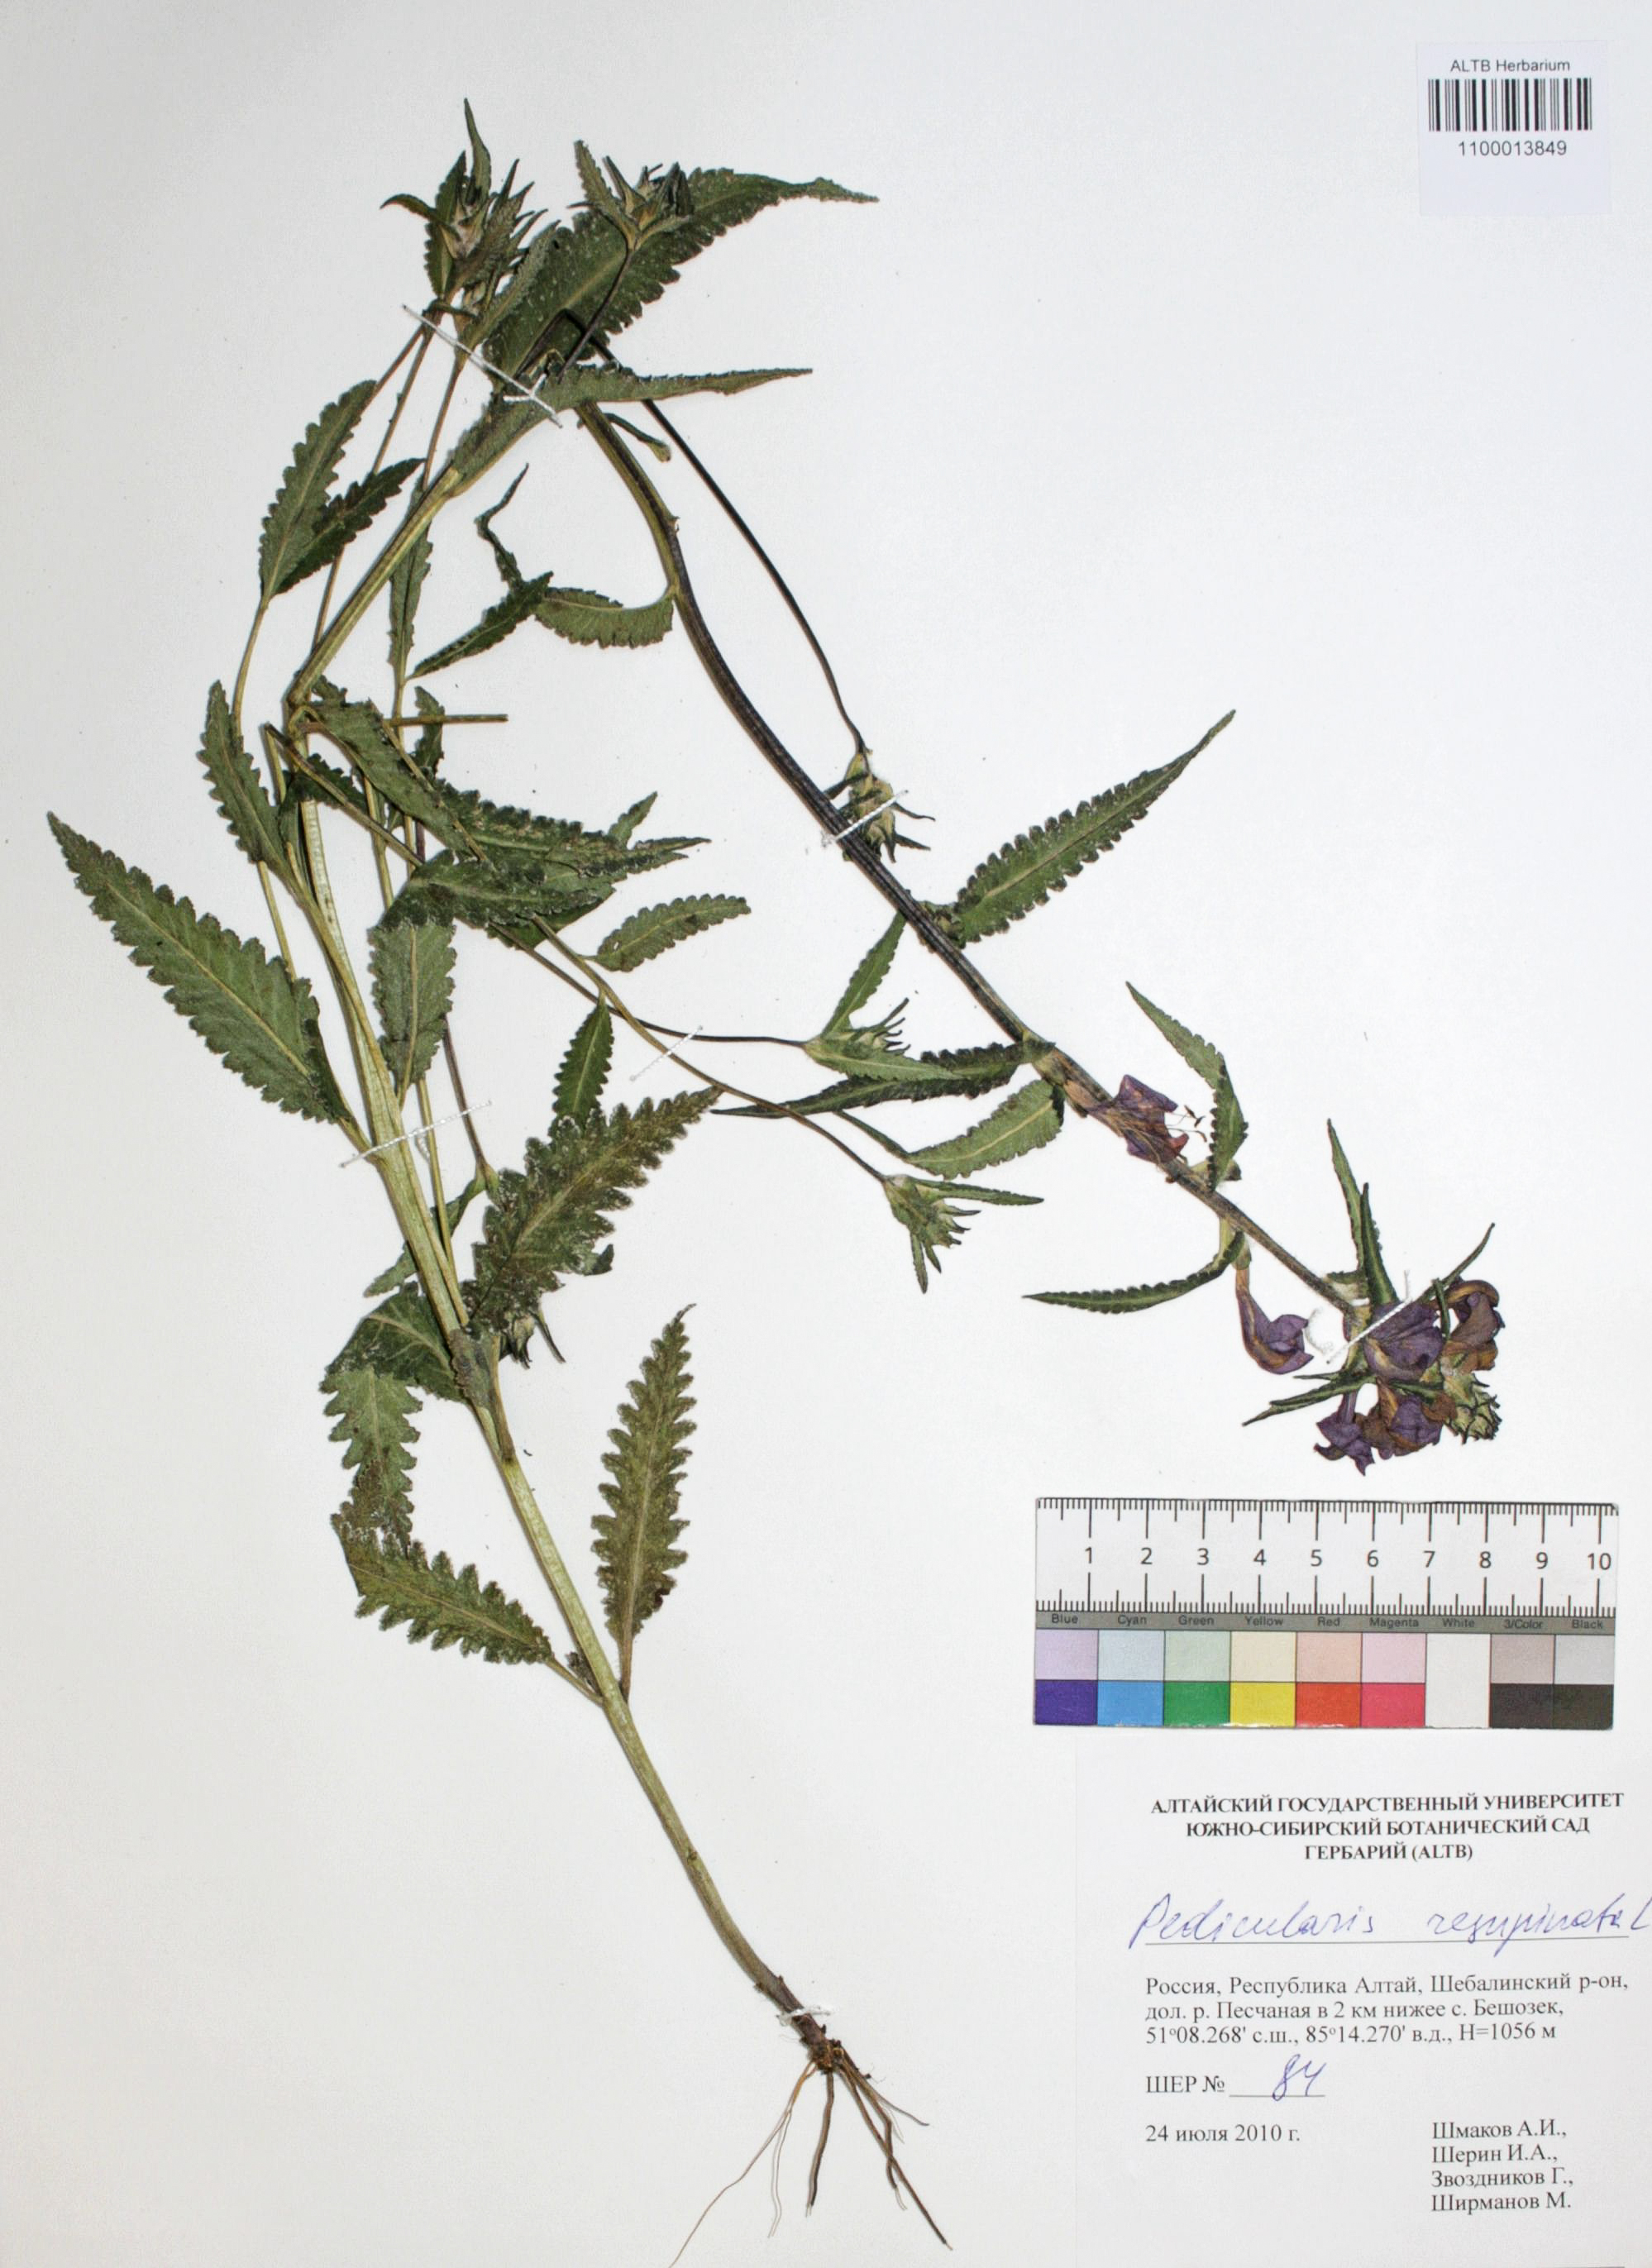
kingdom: Plantae
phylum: Tracheophyta
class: Magnoliopsida
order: Lamiales
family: Orobanchaceae
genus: Pedicularis
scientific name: Pedicularis resupinata
